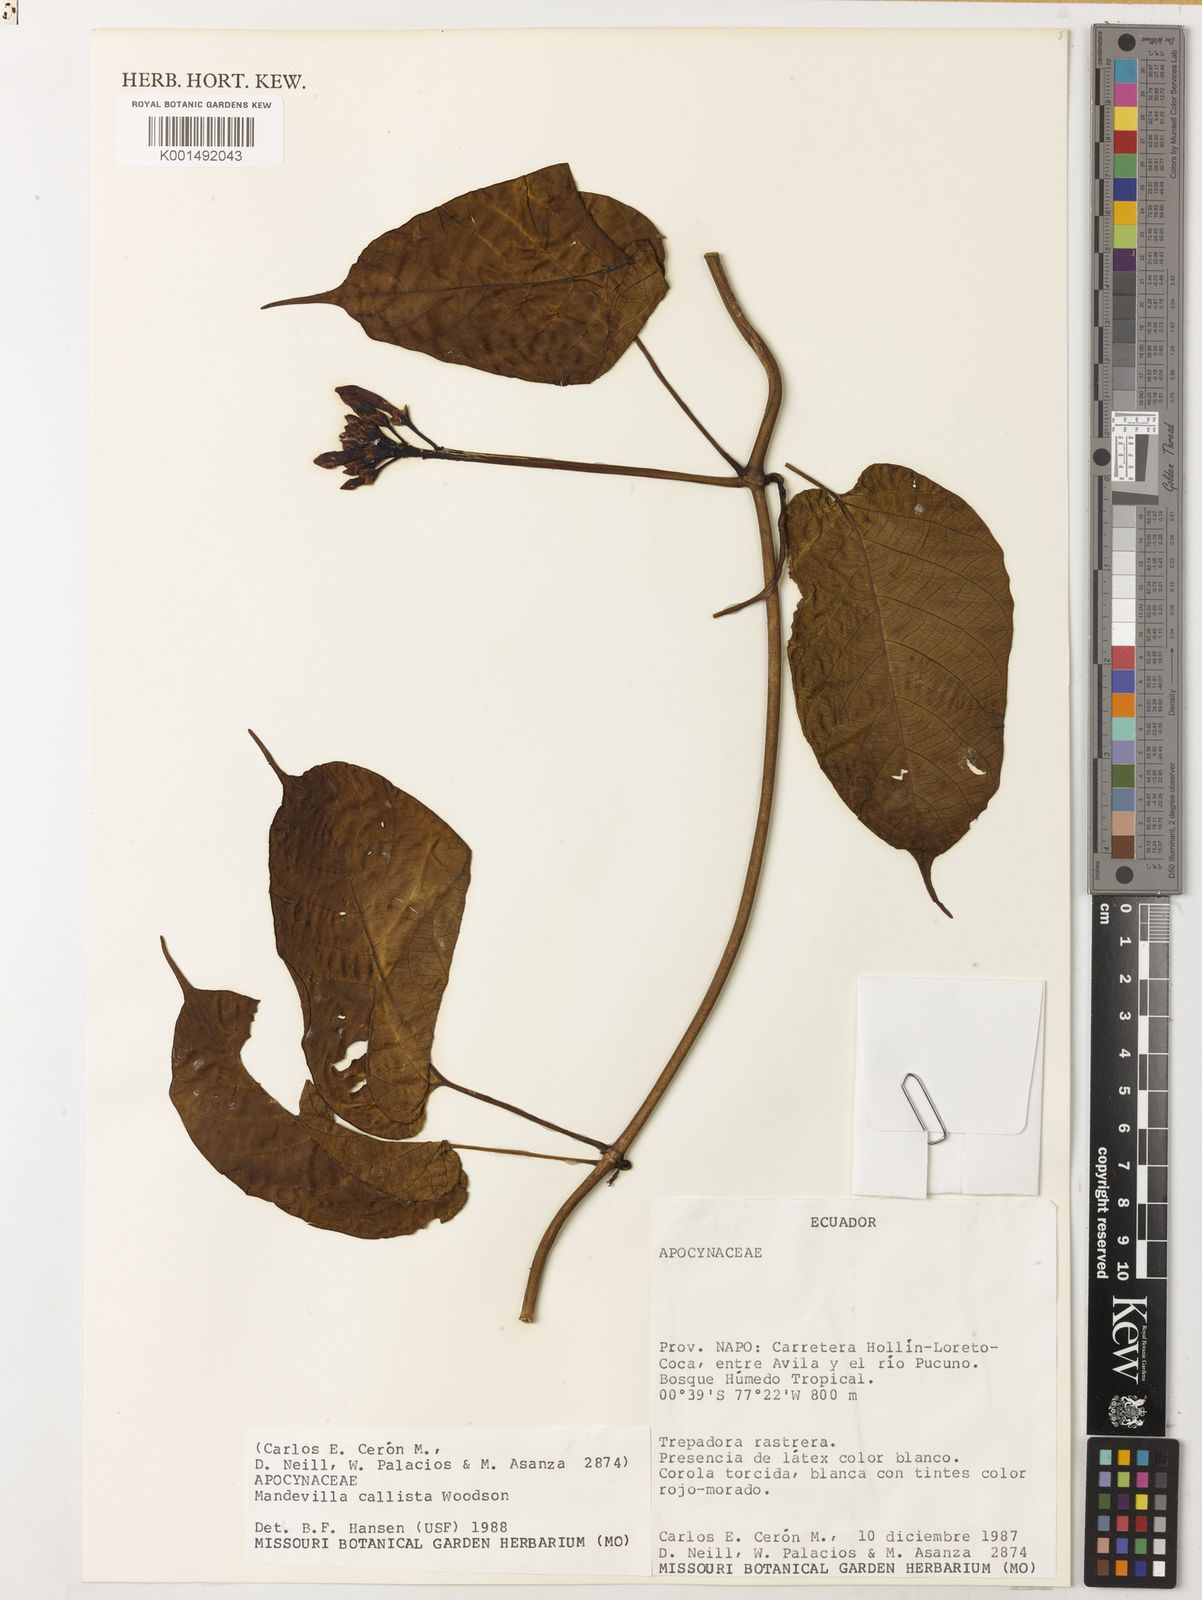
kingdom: Plantae
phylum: Tracheophyta
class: Magnoliopsida
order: Gentianales
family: Apocynaceae
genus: Mandevilla
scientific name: Mandevilla callista
